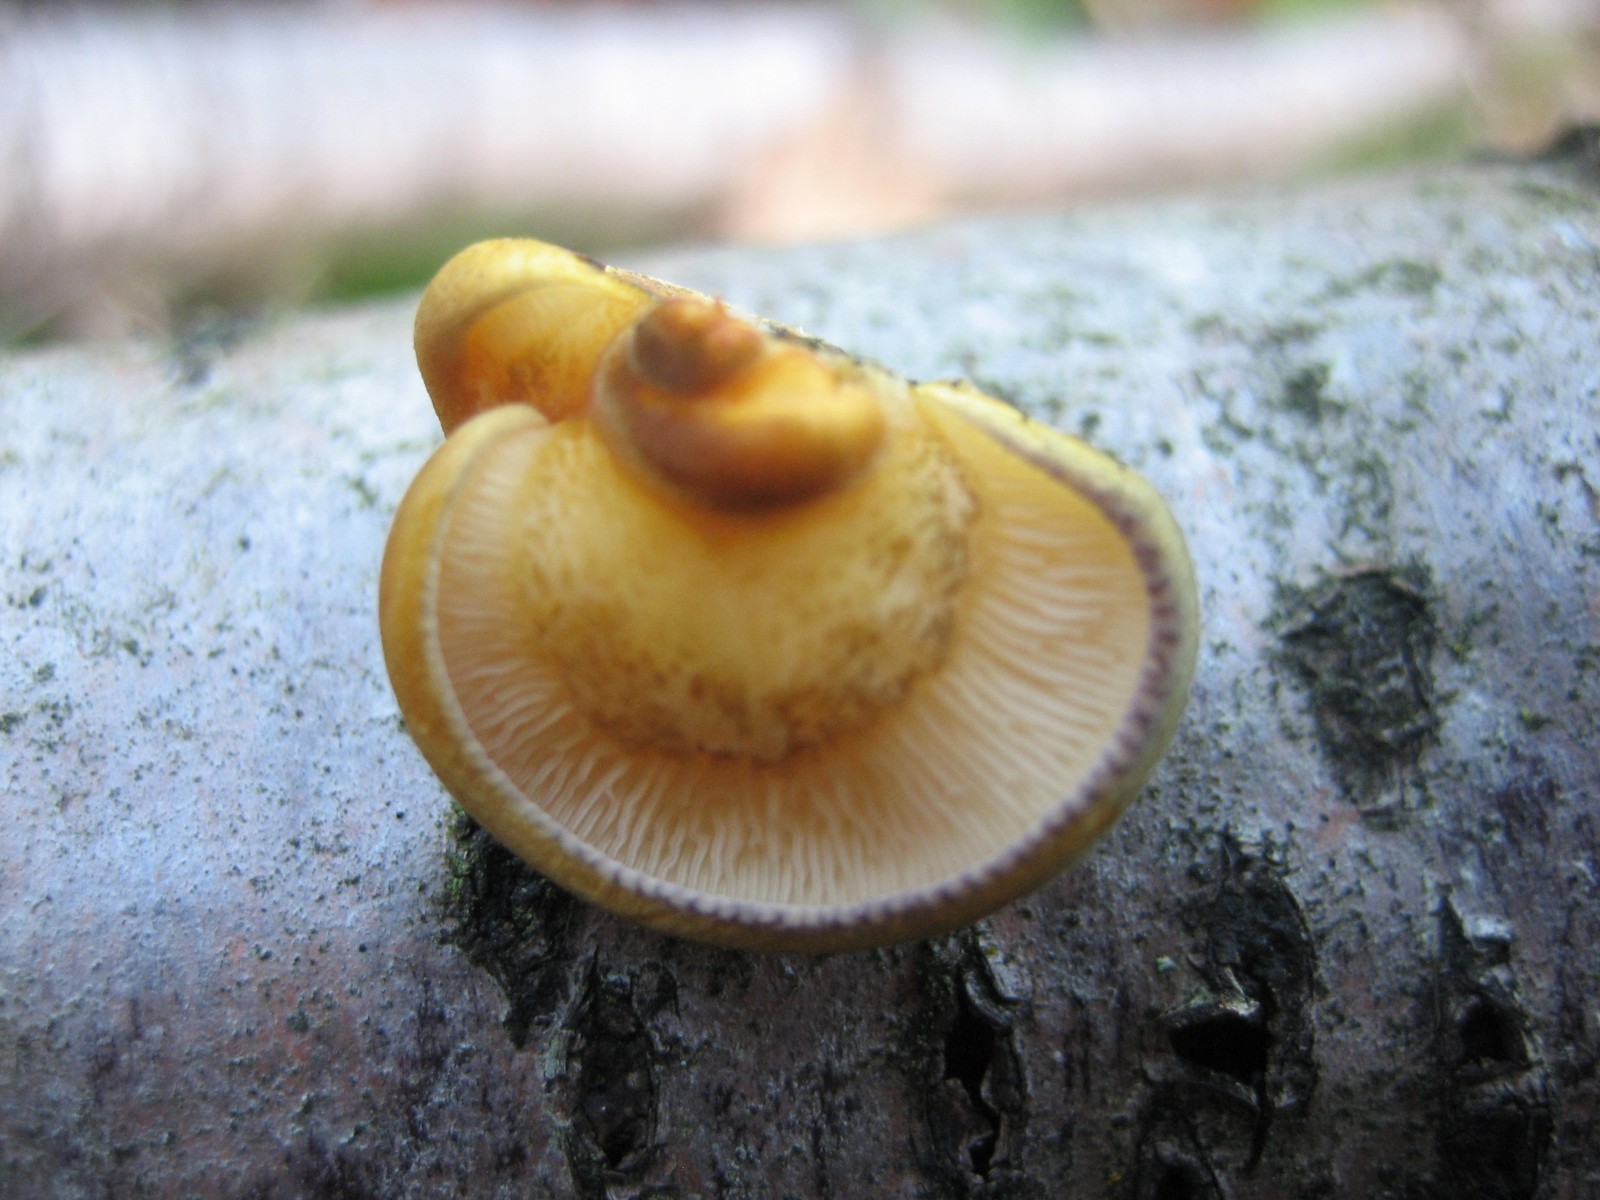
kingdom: Fungi
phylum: Basidiomycota
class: Agaricomycetes
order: Agaricales
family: Sarcomyxaceae
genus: Sarcomyxa
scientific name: Sarcomyxa serotina
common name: gummihat
